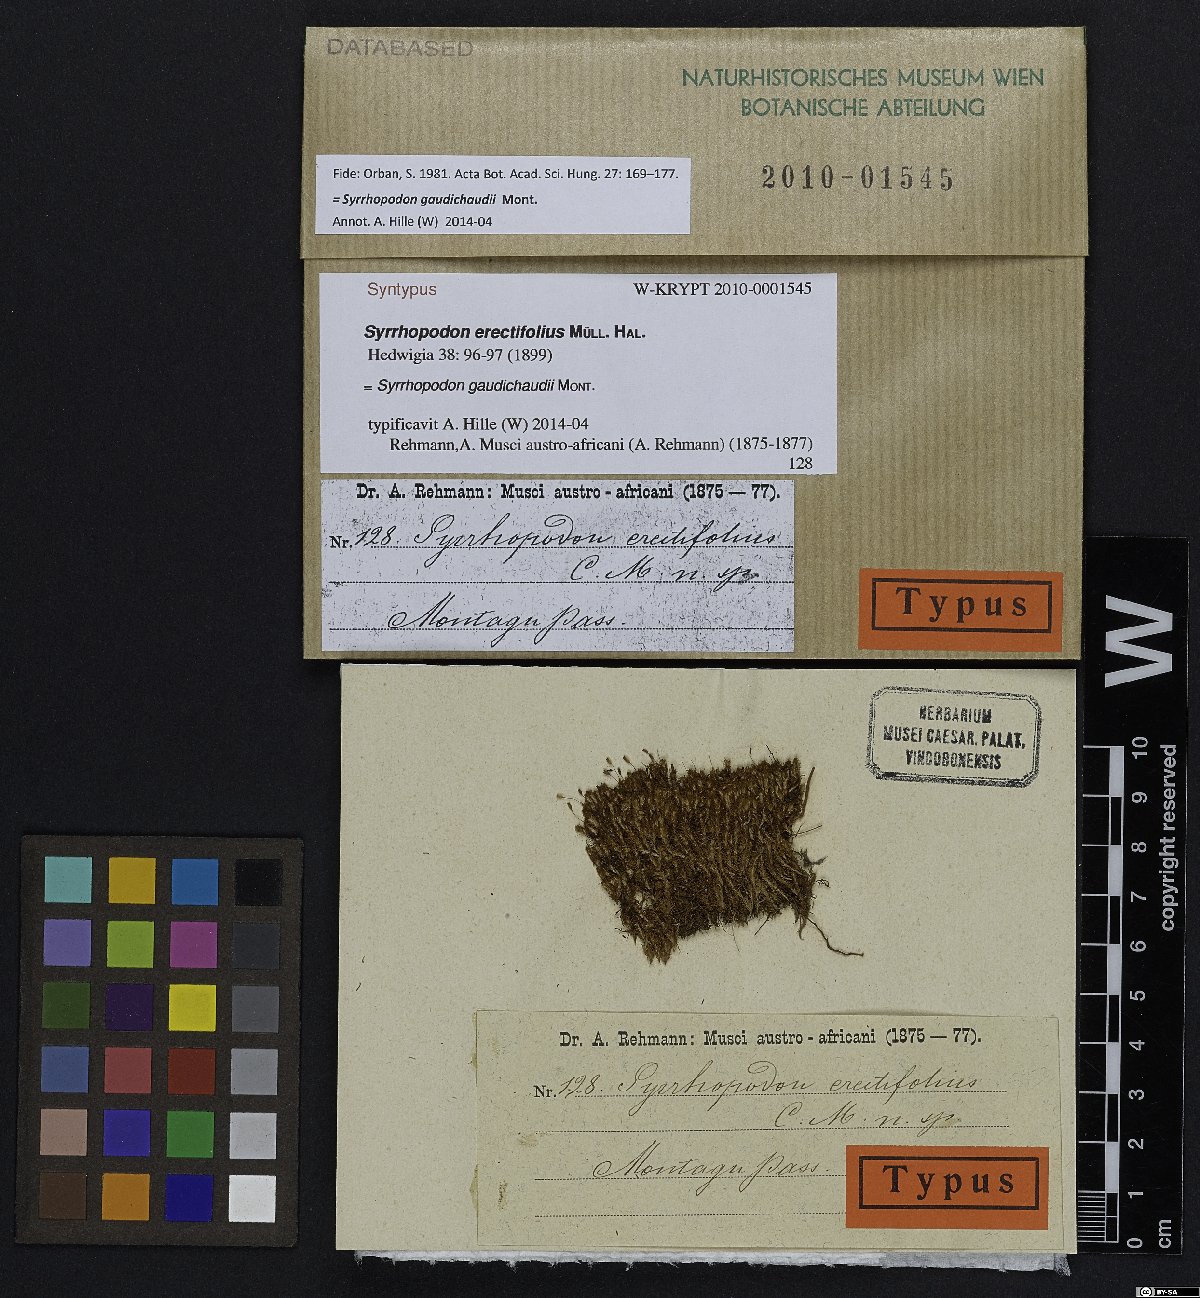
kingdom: Plantae
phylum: Bryophyta
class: Bryopsida
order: Dicranales
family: Calymperaceae
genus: Syrrhopodon
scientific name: Syrrhopodon gaudichaudii
